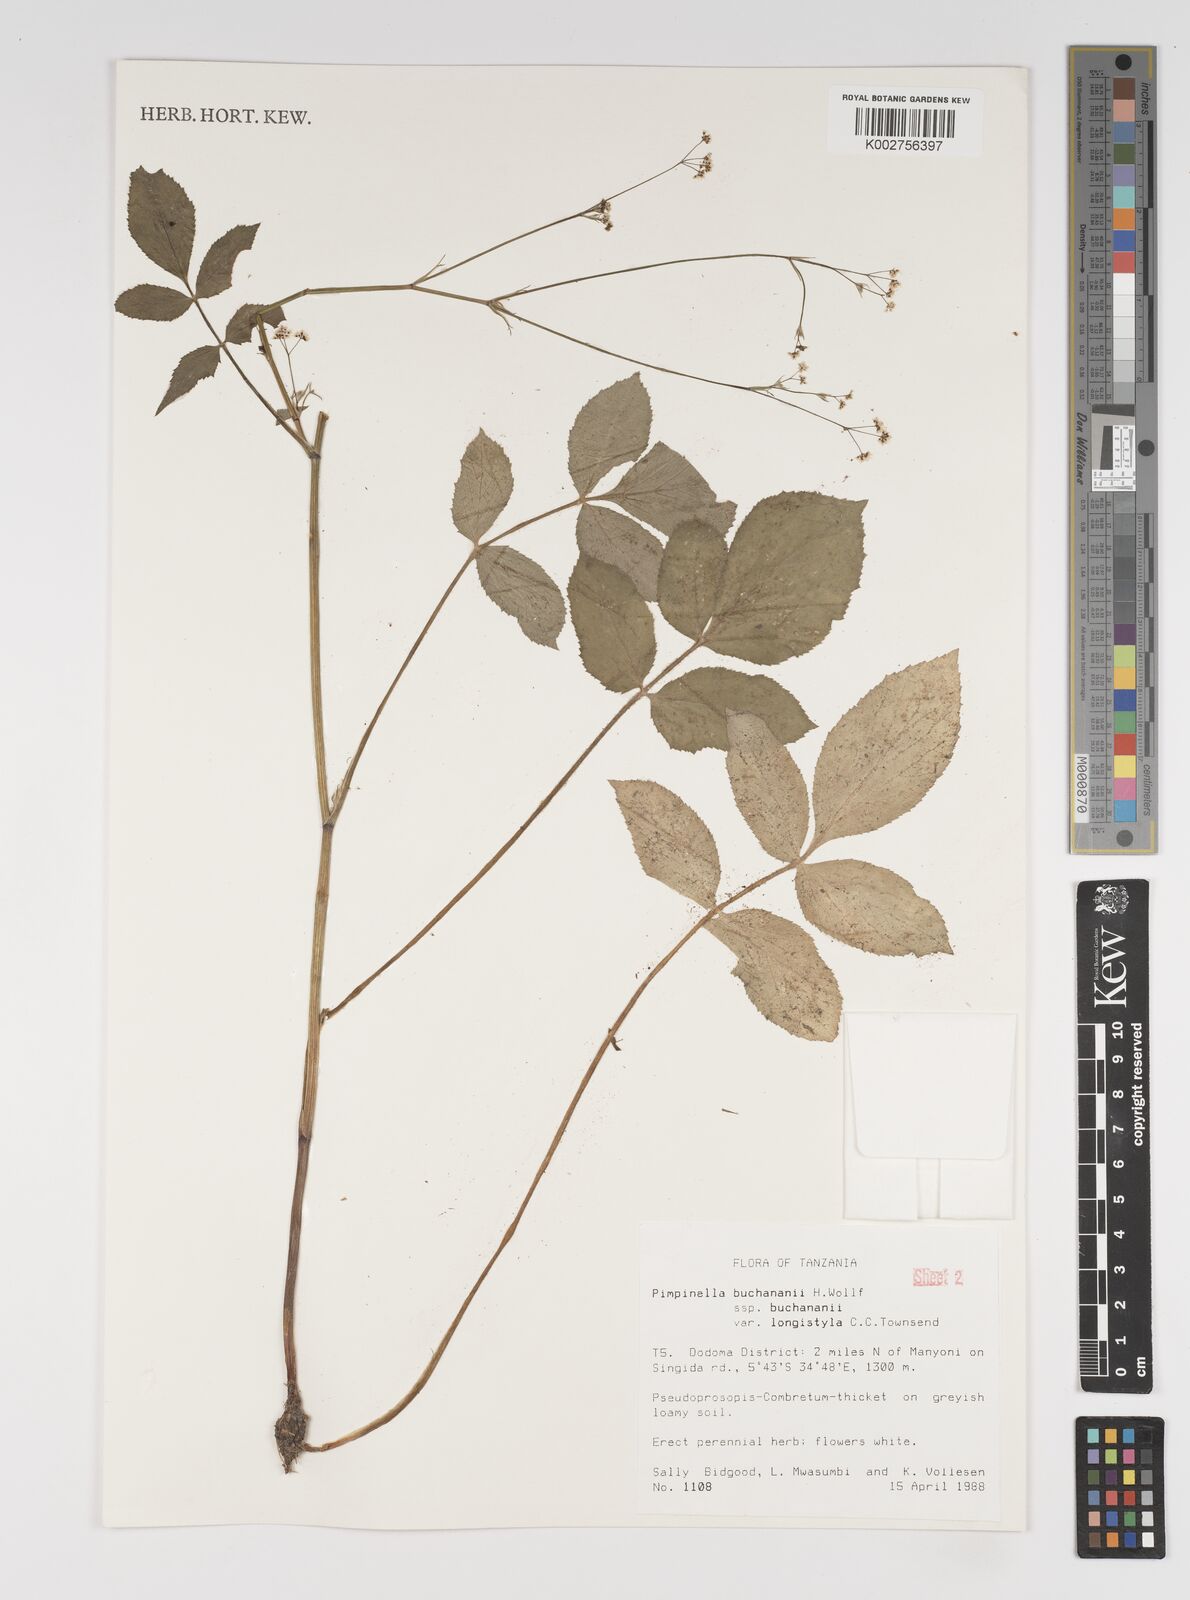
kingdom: Plantae
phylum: Tracheophyta
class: Magnoliopsida
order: Apiales
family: Apiaceae
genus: Pimpinella
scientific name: Pimpinella buchananii
